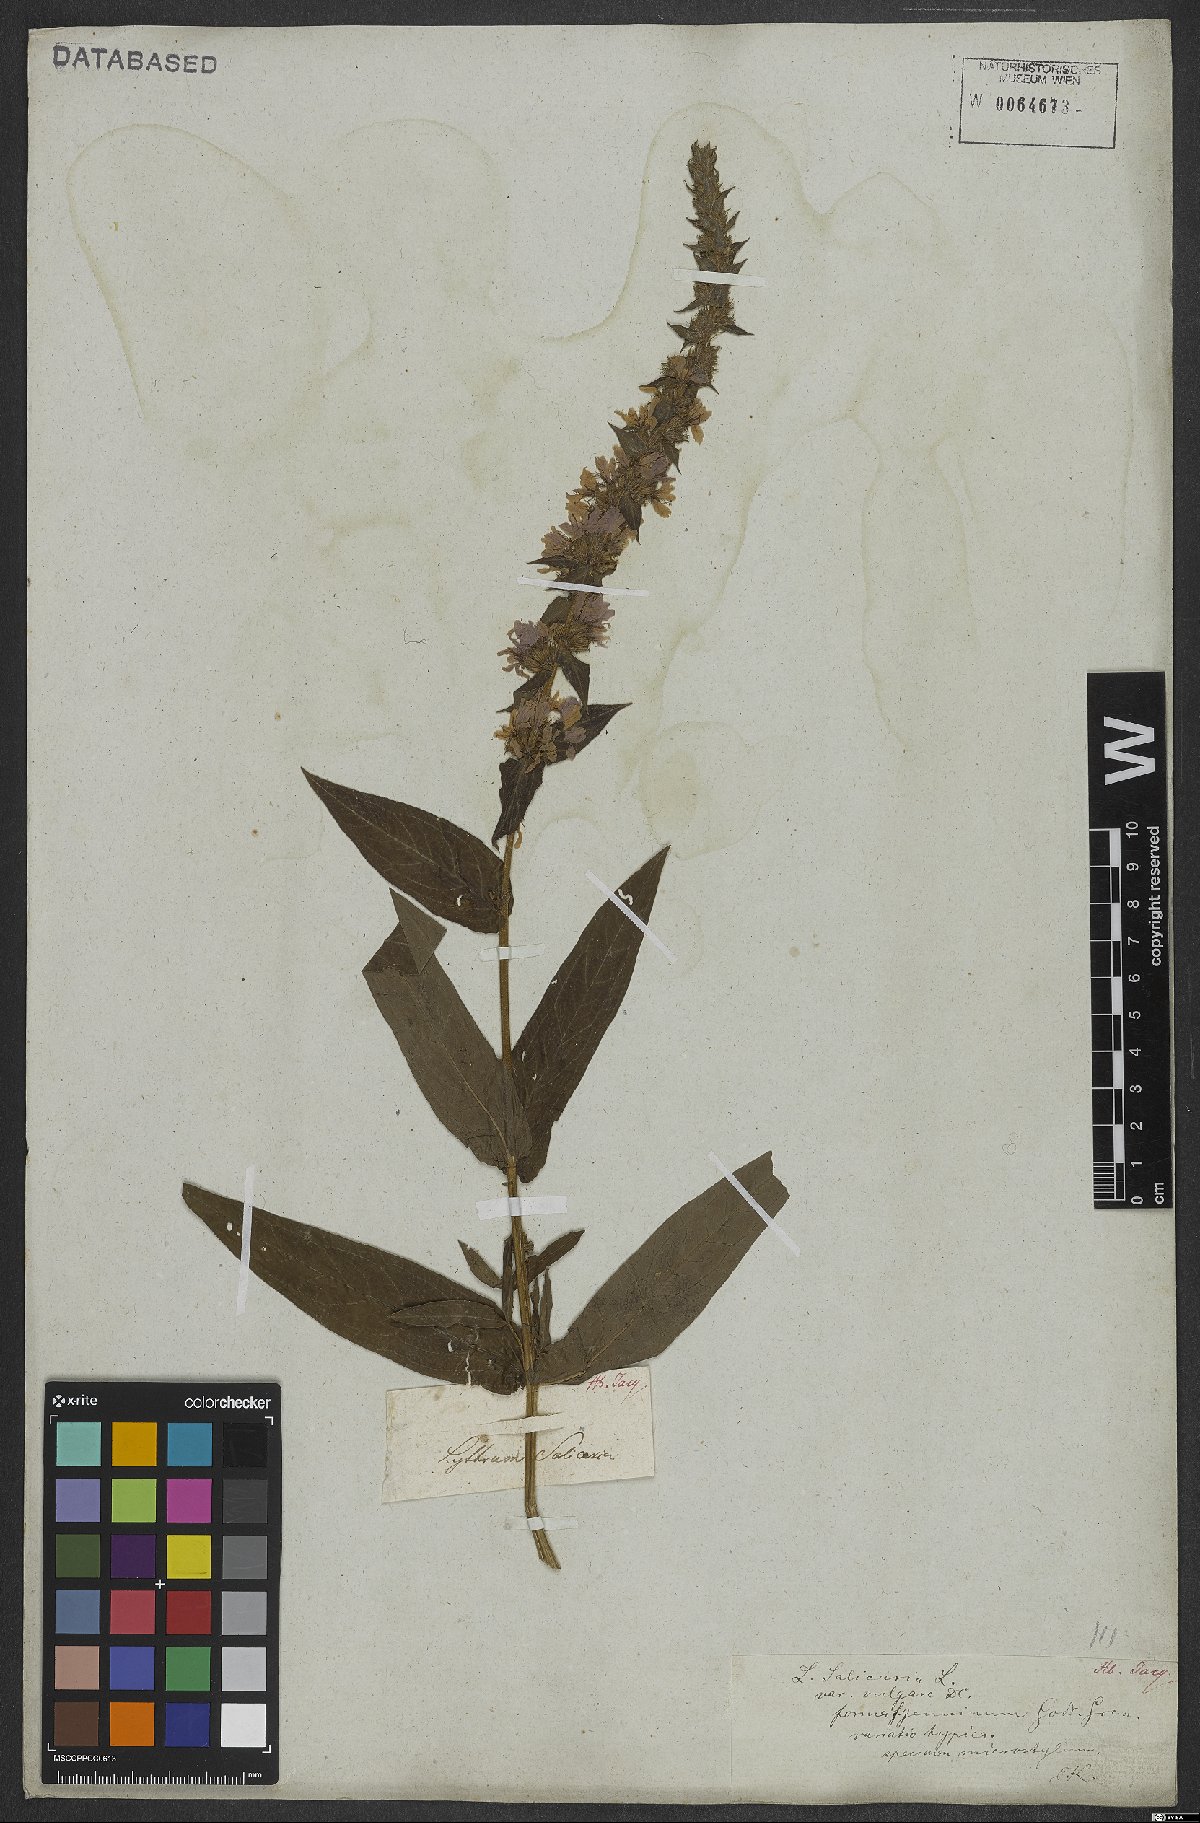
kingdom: Plantae
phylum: Tracheophyta
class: Magnoliopsida
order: Myrtales
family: Lythraceae
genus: Lythrum
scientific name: Lythrum salicaria
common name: Purple loosestrife
